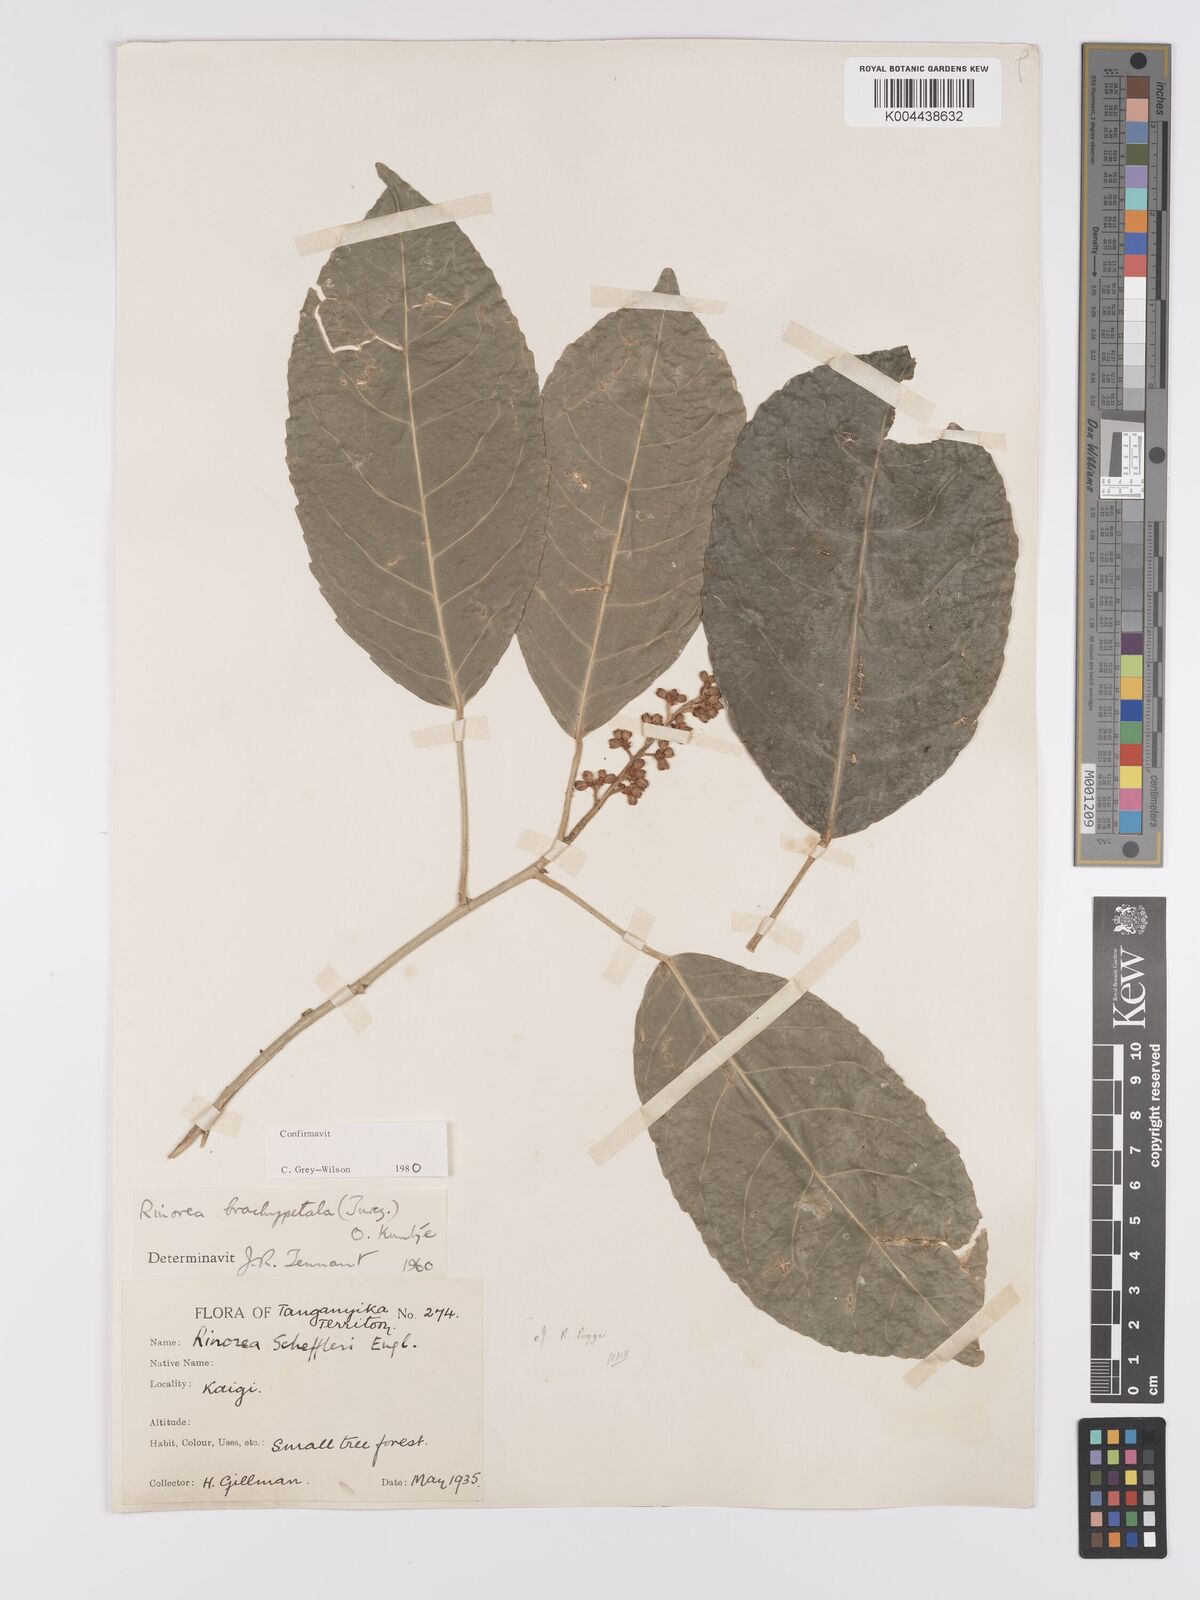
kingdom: Plantae
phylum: Tracheophyta
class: Magnoliopsida
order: Malpighiales
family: Violaceae
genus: Rinorea
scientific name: Rinorea brachypetala
